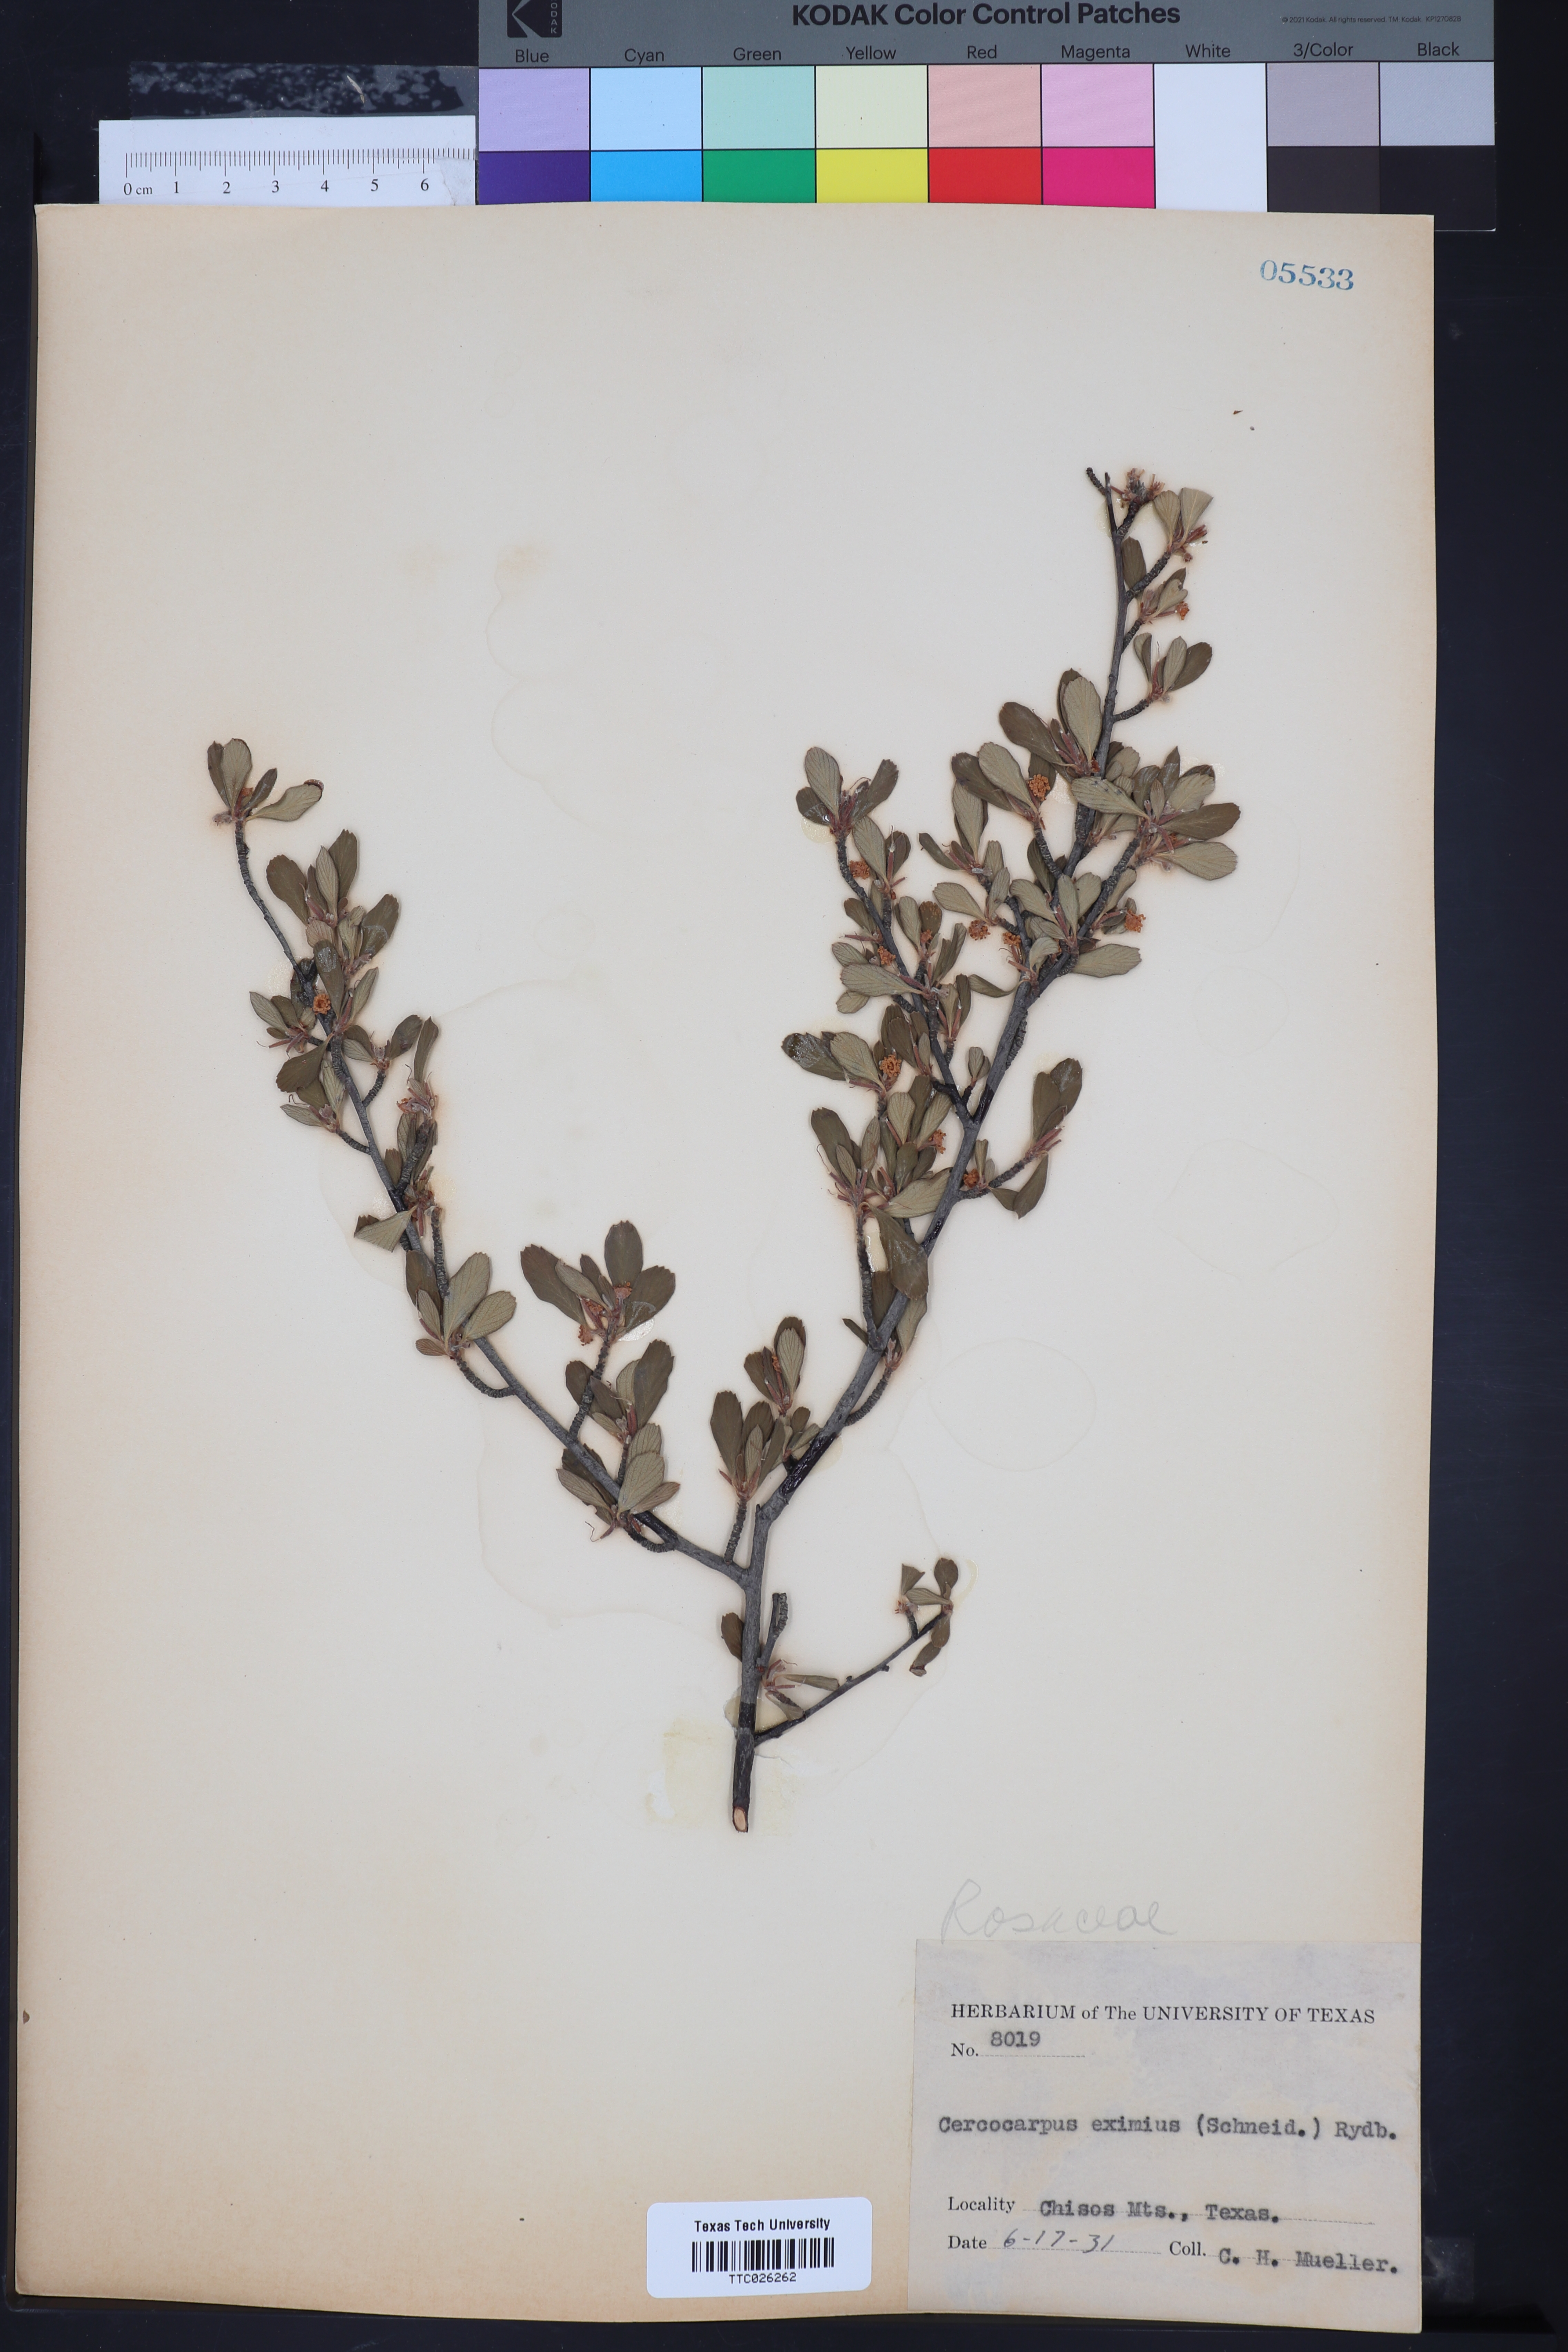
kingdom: Plantae
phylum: Tracheophyta
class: Magnoliopsida
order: Rosales
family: Rosaceae
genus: Cercocarpus
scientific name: Cercocarpus breviflorus
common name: Wright's mountain-mahogany
